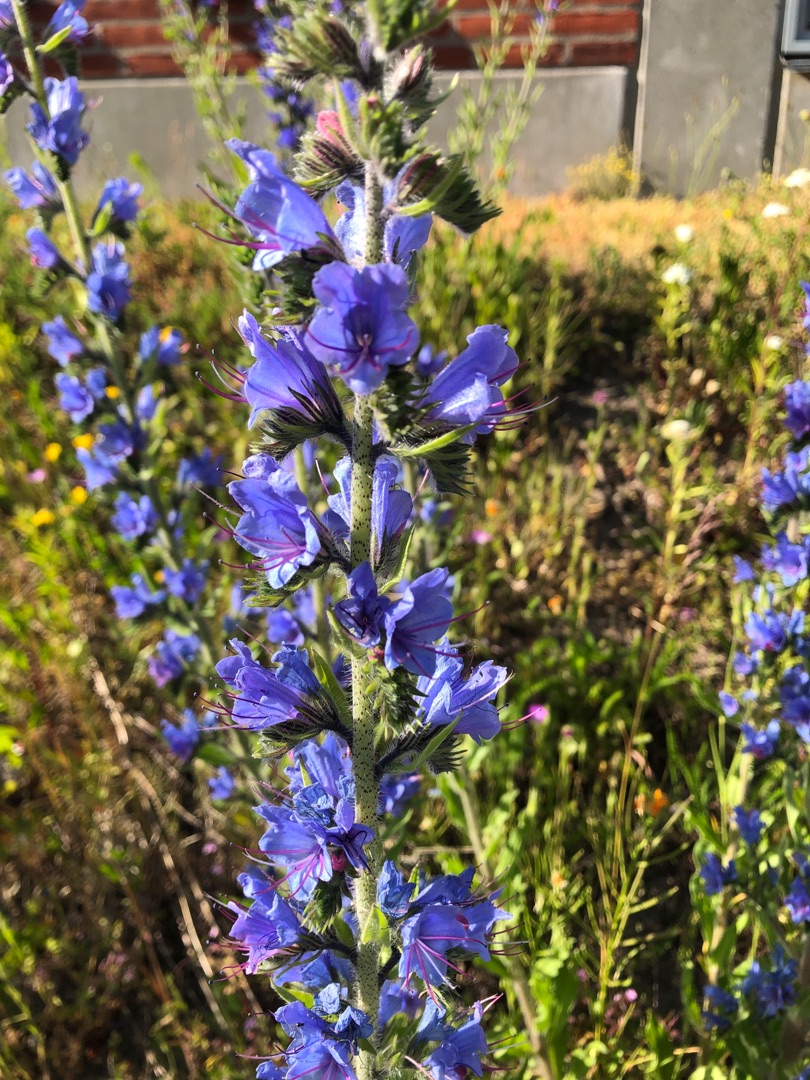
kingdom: Plantae
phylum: Tracheophyta
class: Magnoliopsida
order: Boraginales
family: Boraginaceae
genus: Echium
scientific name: Echium vulgare
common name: Slangehoved
